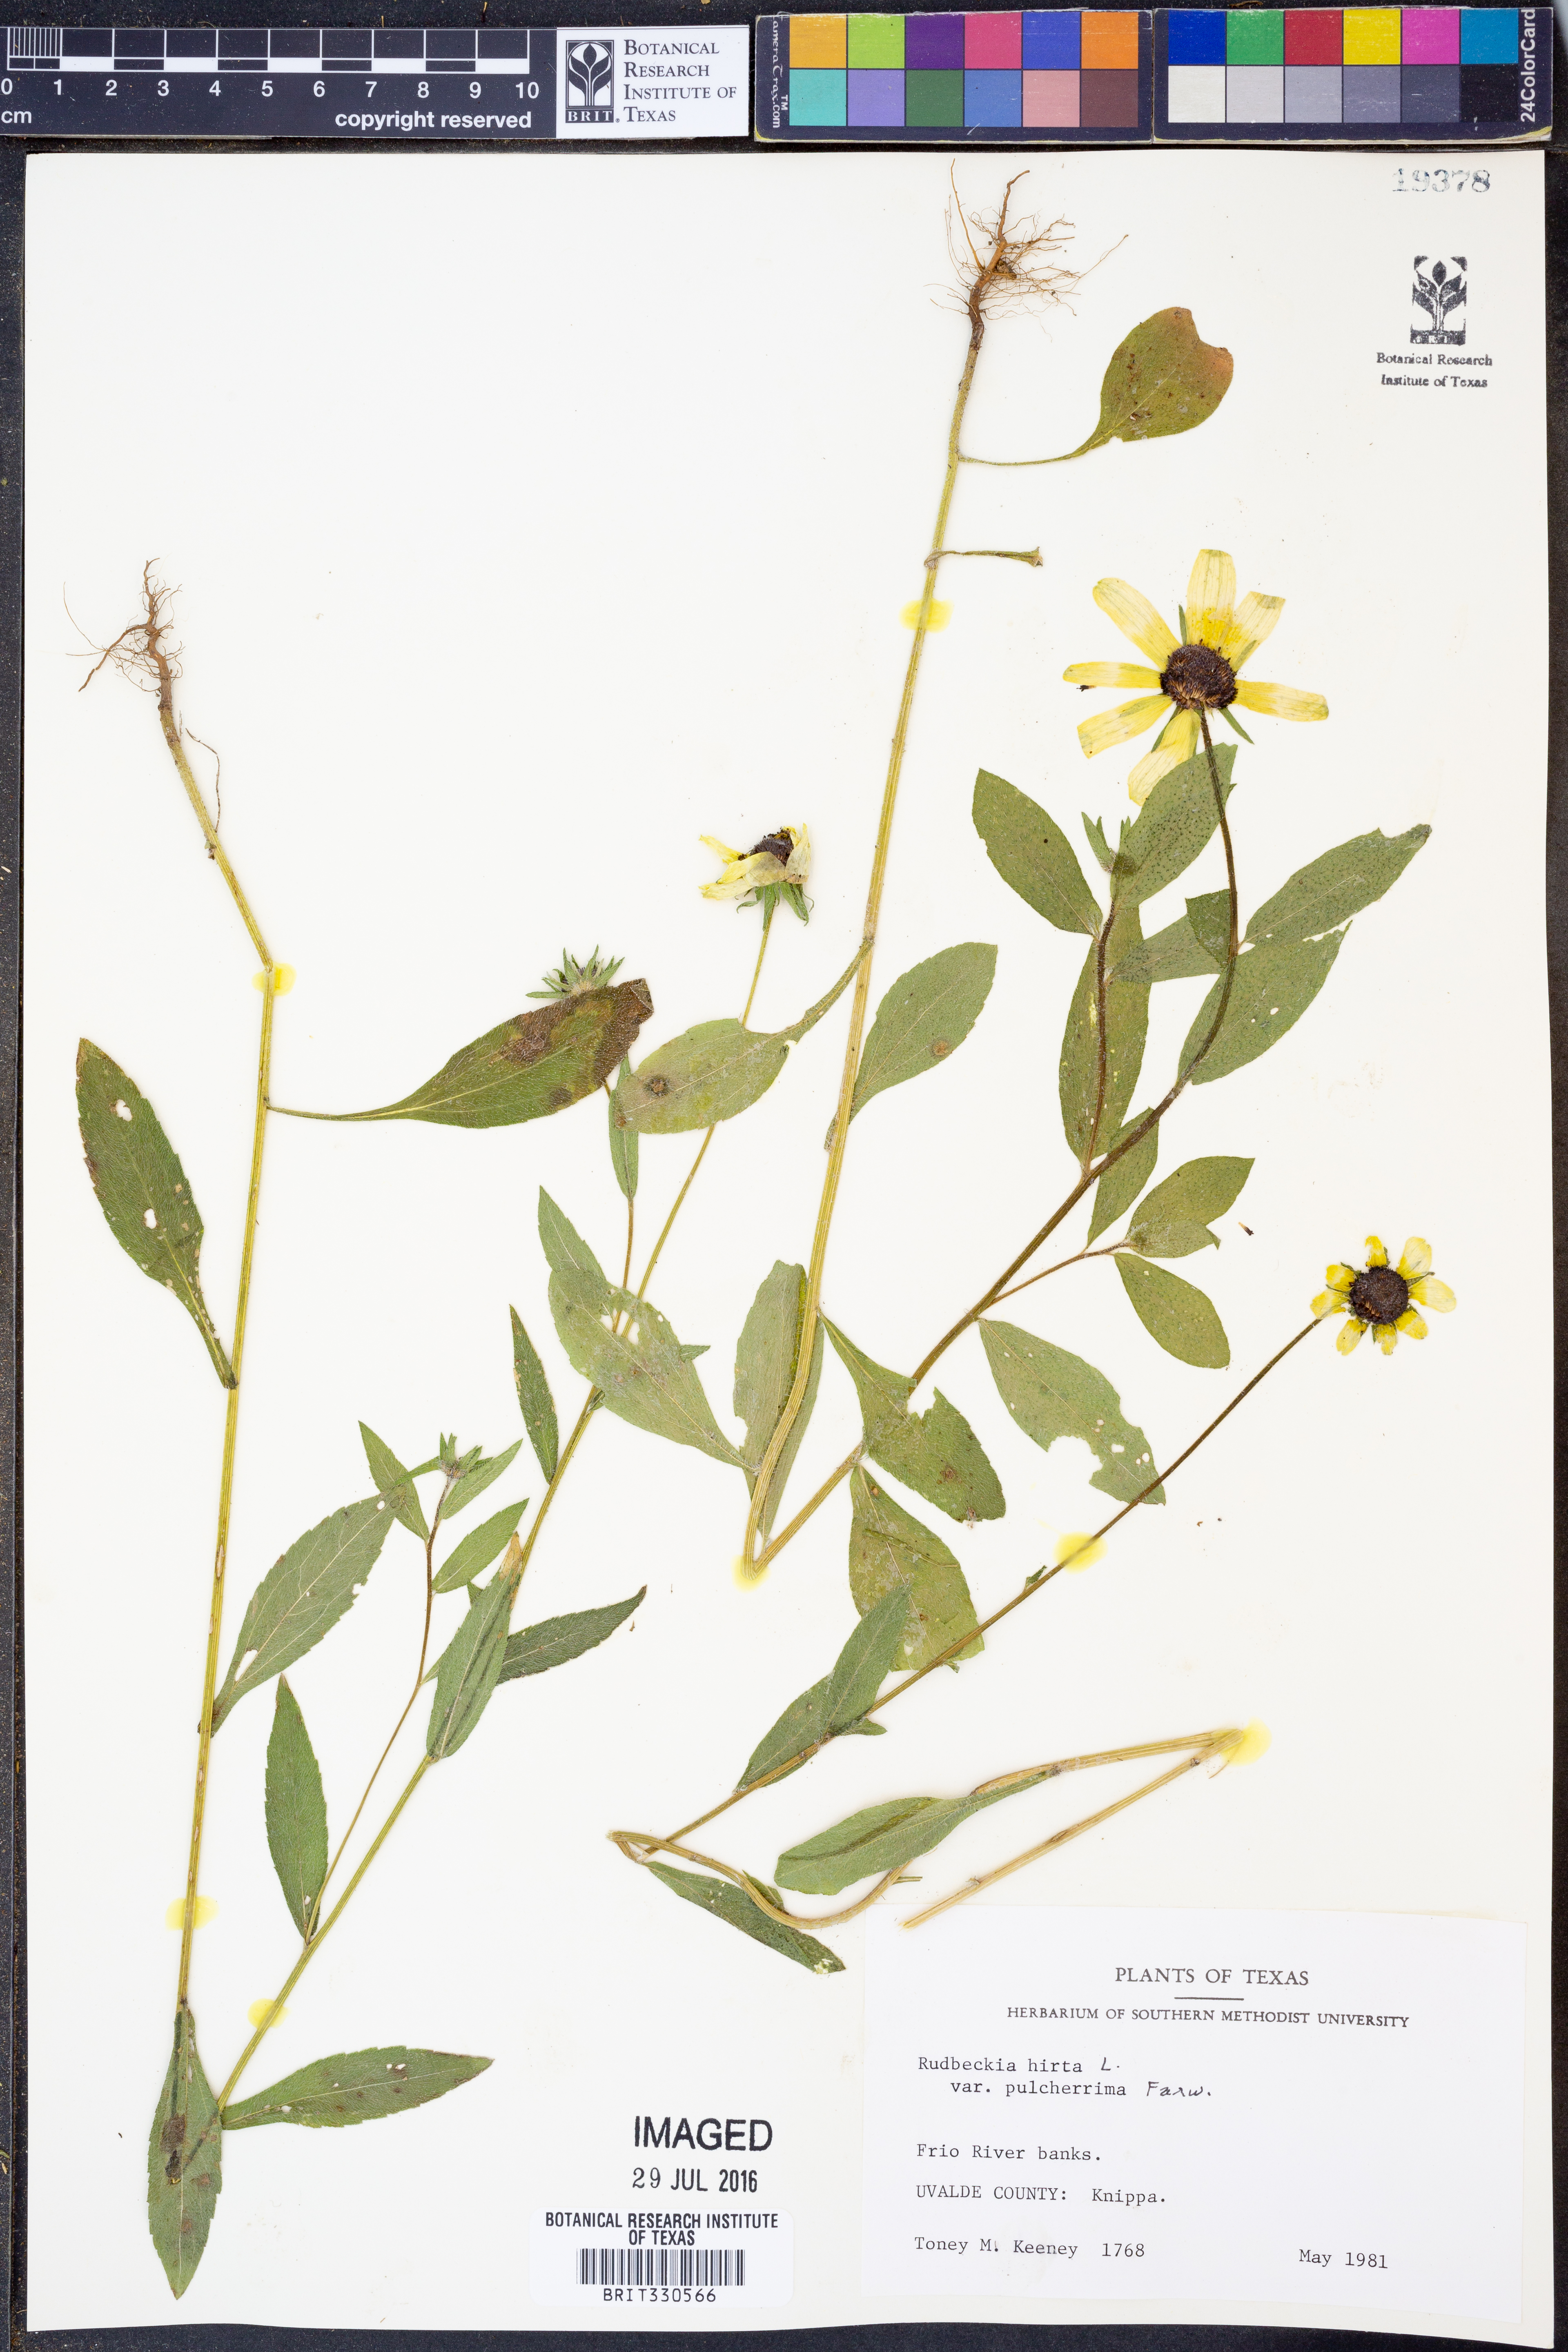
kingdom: Plantae
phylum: Tracheophyta
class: Magnoliopsida
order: Asterales
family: Asteraceae
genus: Rudbeckia
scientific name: Rudbeckia hirta
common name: Black-eyed-susan
